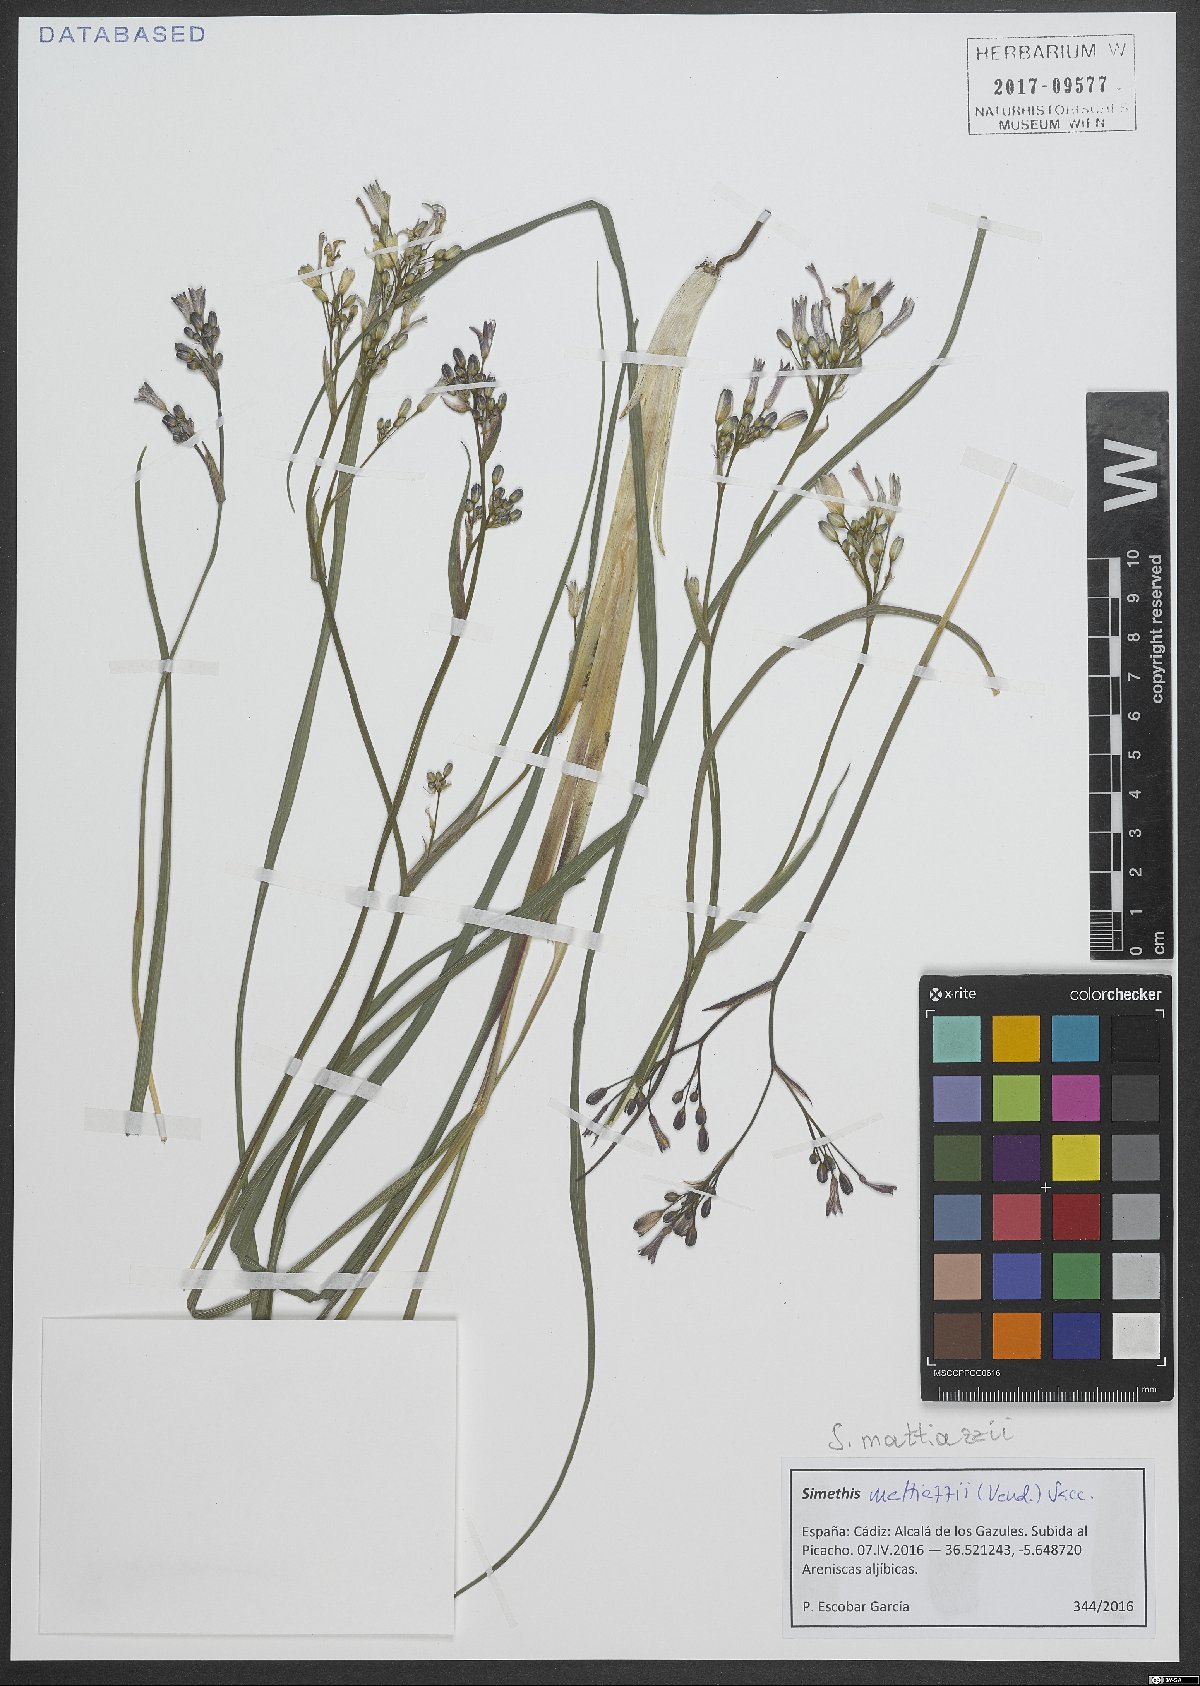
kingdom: Plantae
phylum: Tracheophyta
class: Liliopsida
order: Asparagales
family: Asphodelaceae
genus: Simethis
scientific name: Simethis mattiazzii
